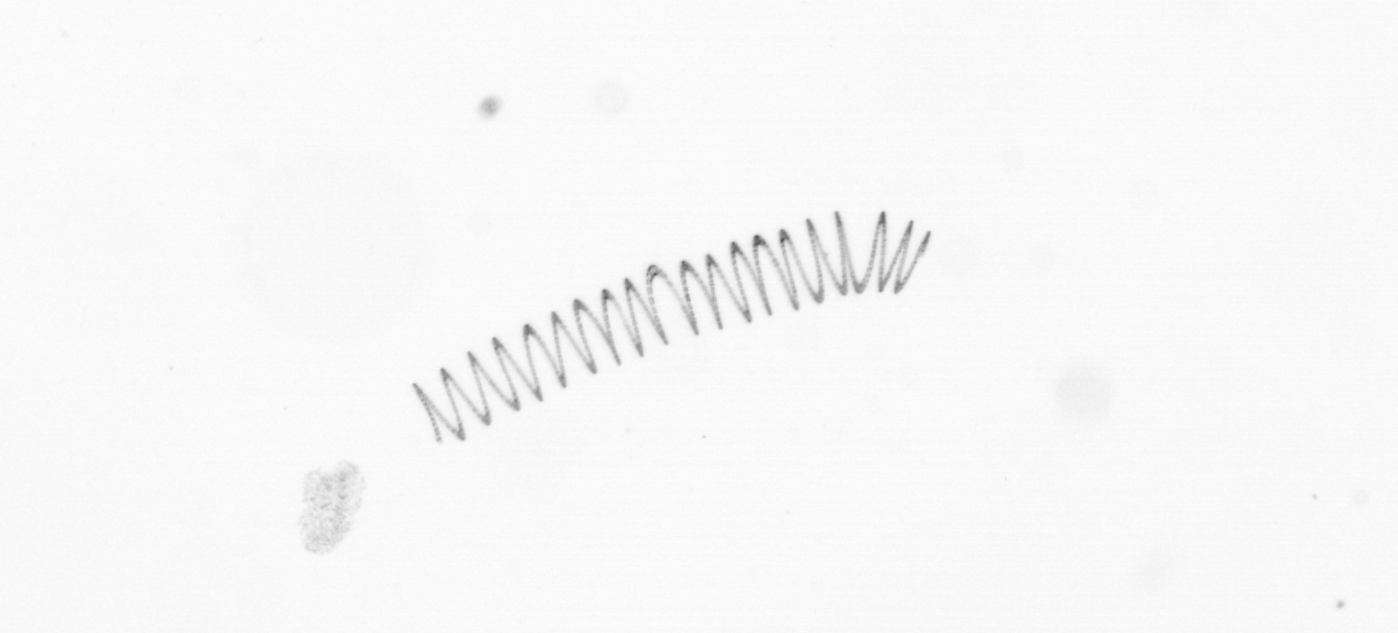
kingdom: Chromista
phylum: Ochrophyta
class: Bacillariophyceae
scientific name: Bacillariophyceae
